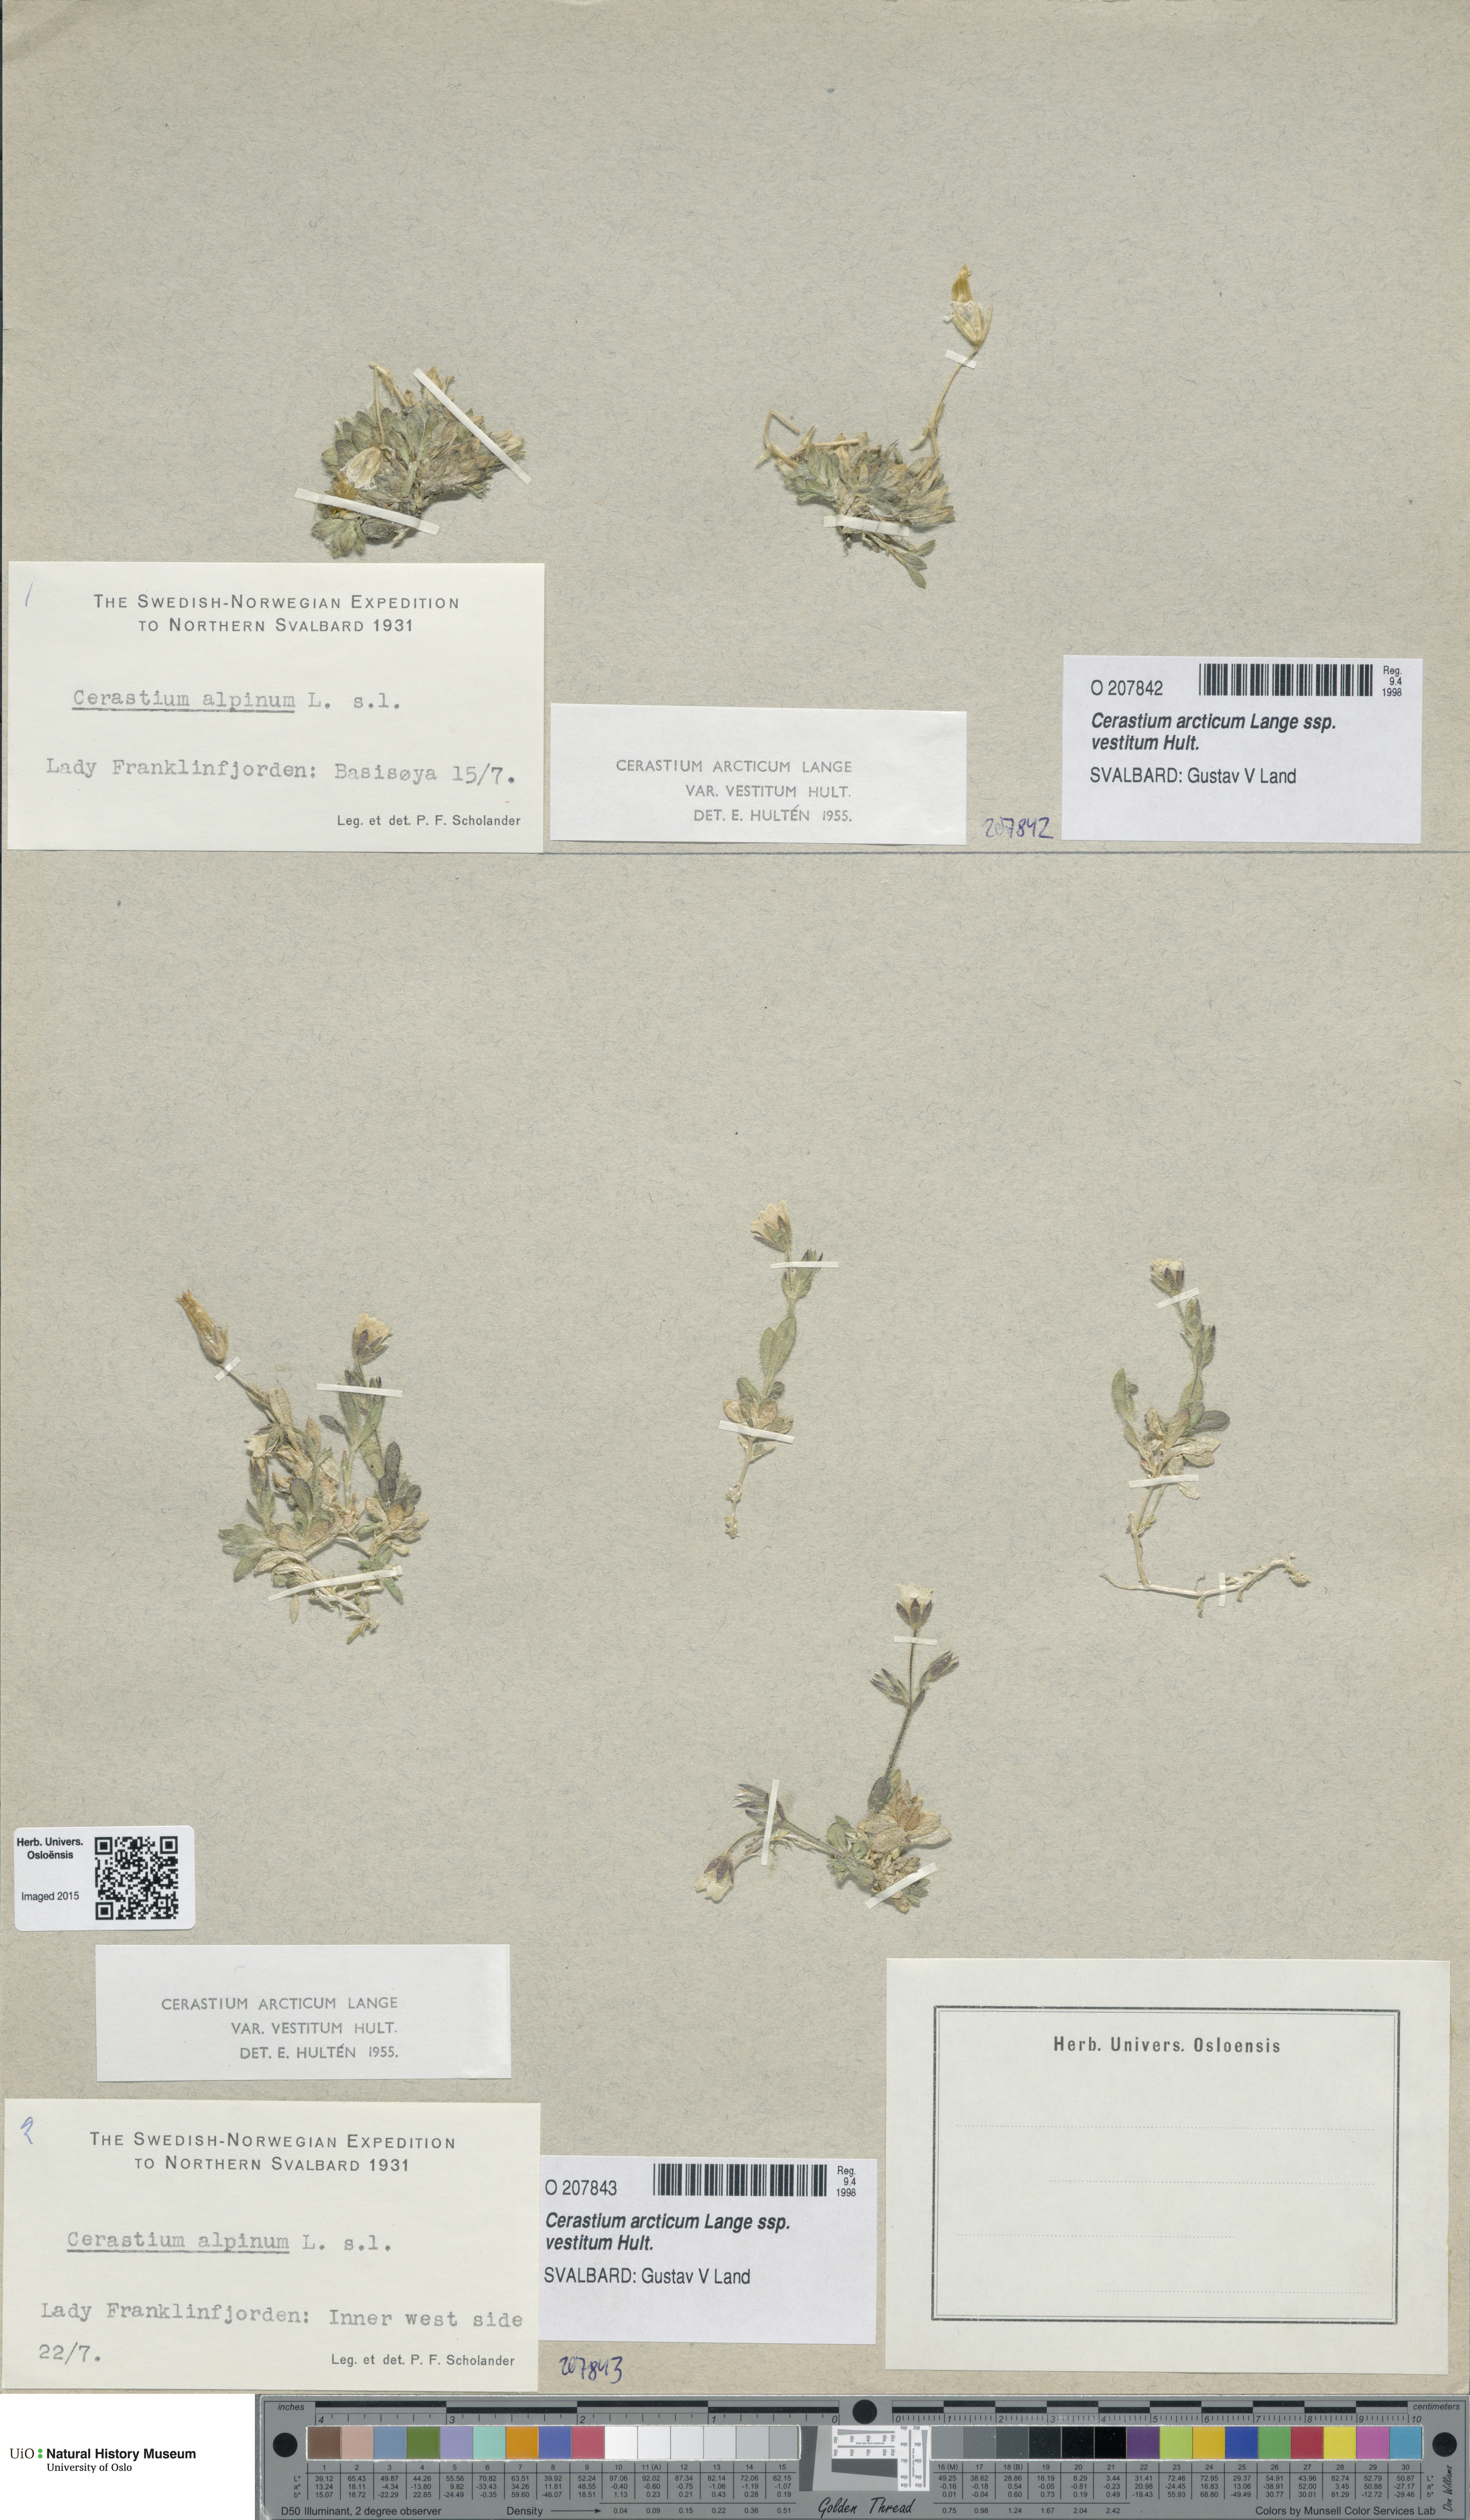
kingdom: Plantae
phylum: Tracheophyta
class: Magnoliopsida
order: Caryophyllales
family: Caryophyllaceae
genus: Cerastium
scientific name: Cerastium arcticum
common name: Arctic mouse-ear
